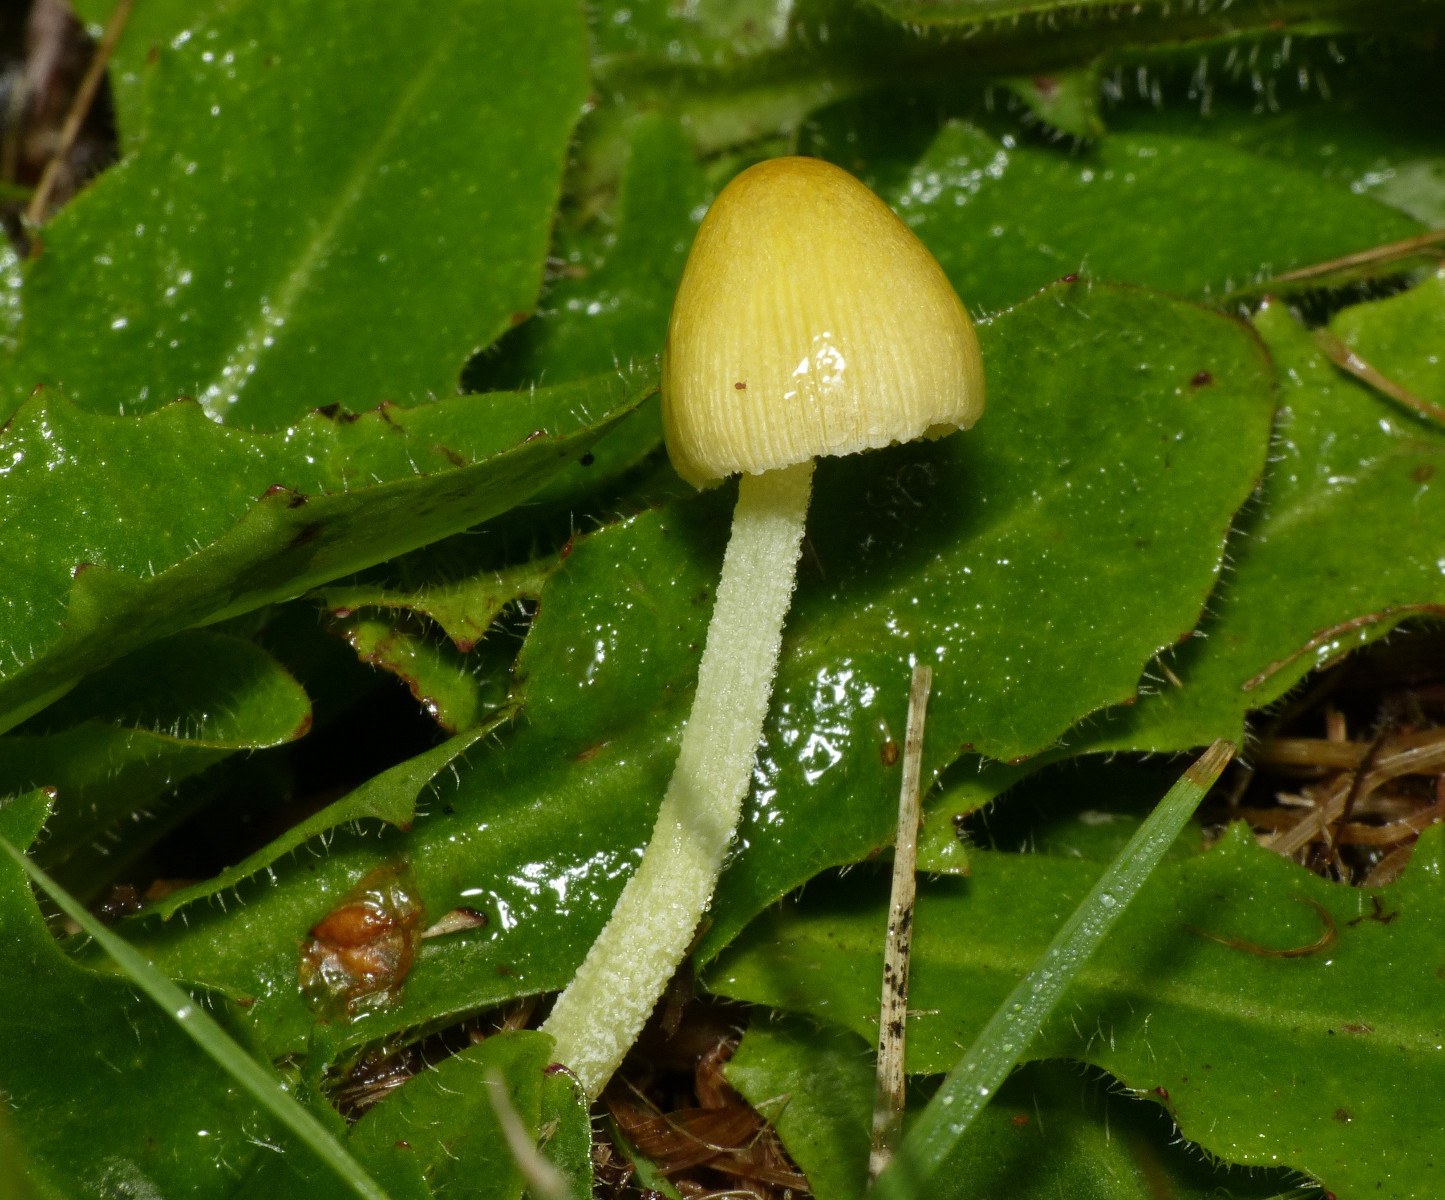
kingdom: Fungi
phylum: Basidiomycota
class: Agaricomycetes
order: Agaricales
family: Bolbitiaceae
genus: Bolbitius
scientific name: Bolbitius titubans
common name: almindelig gulhat
